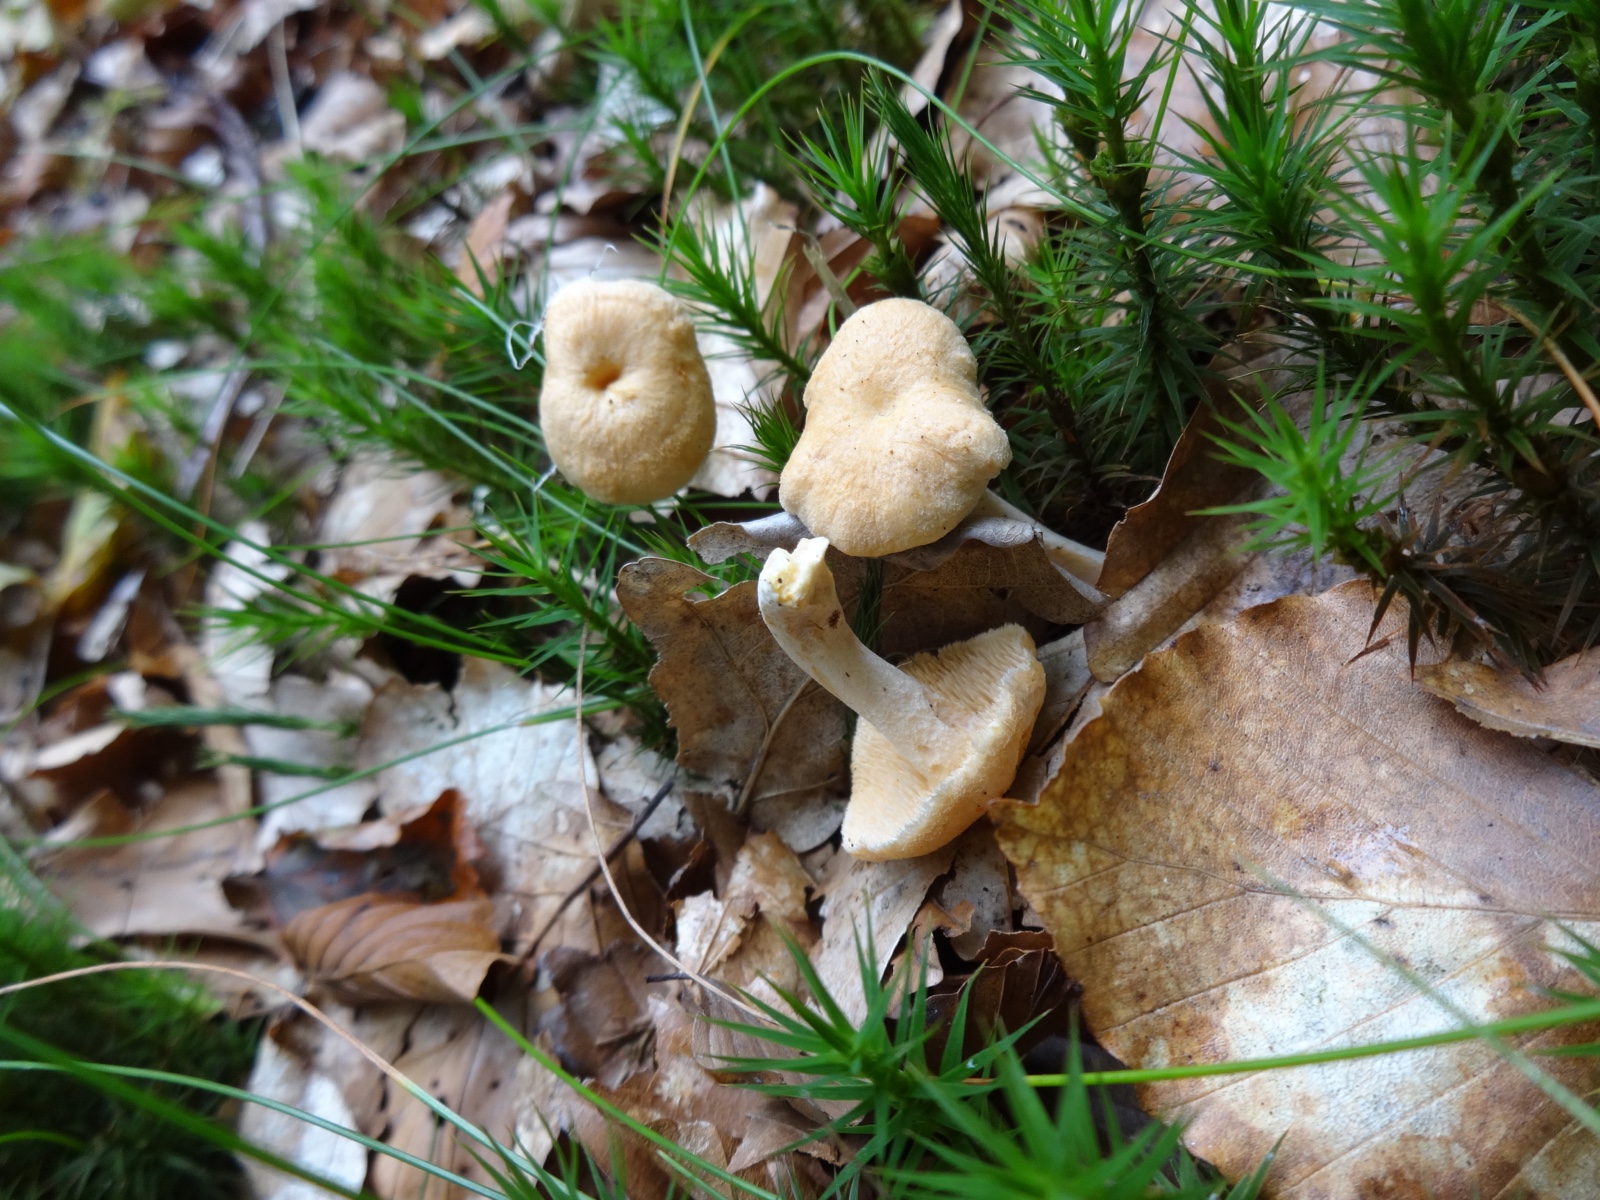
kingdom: Fungi
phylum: Basidiomycota
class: Agaricomycetes
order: Cantharellales
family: Hydnaceae
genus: Hydnum
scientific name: Hydnum umbilicatum
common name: navle-pigsvamp
